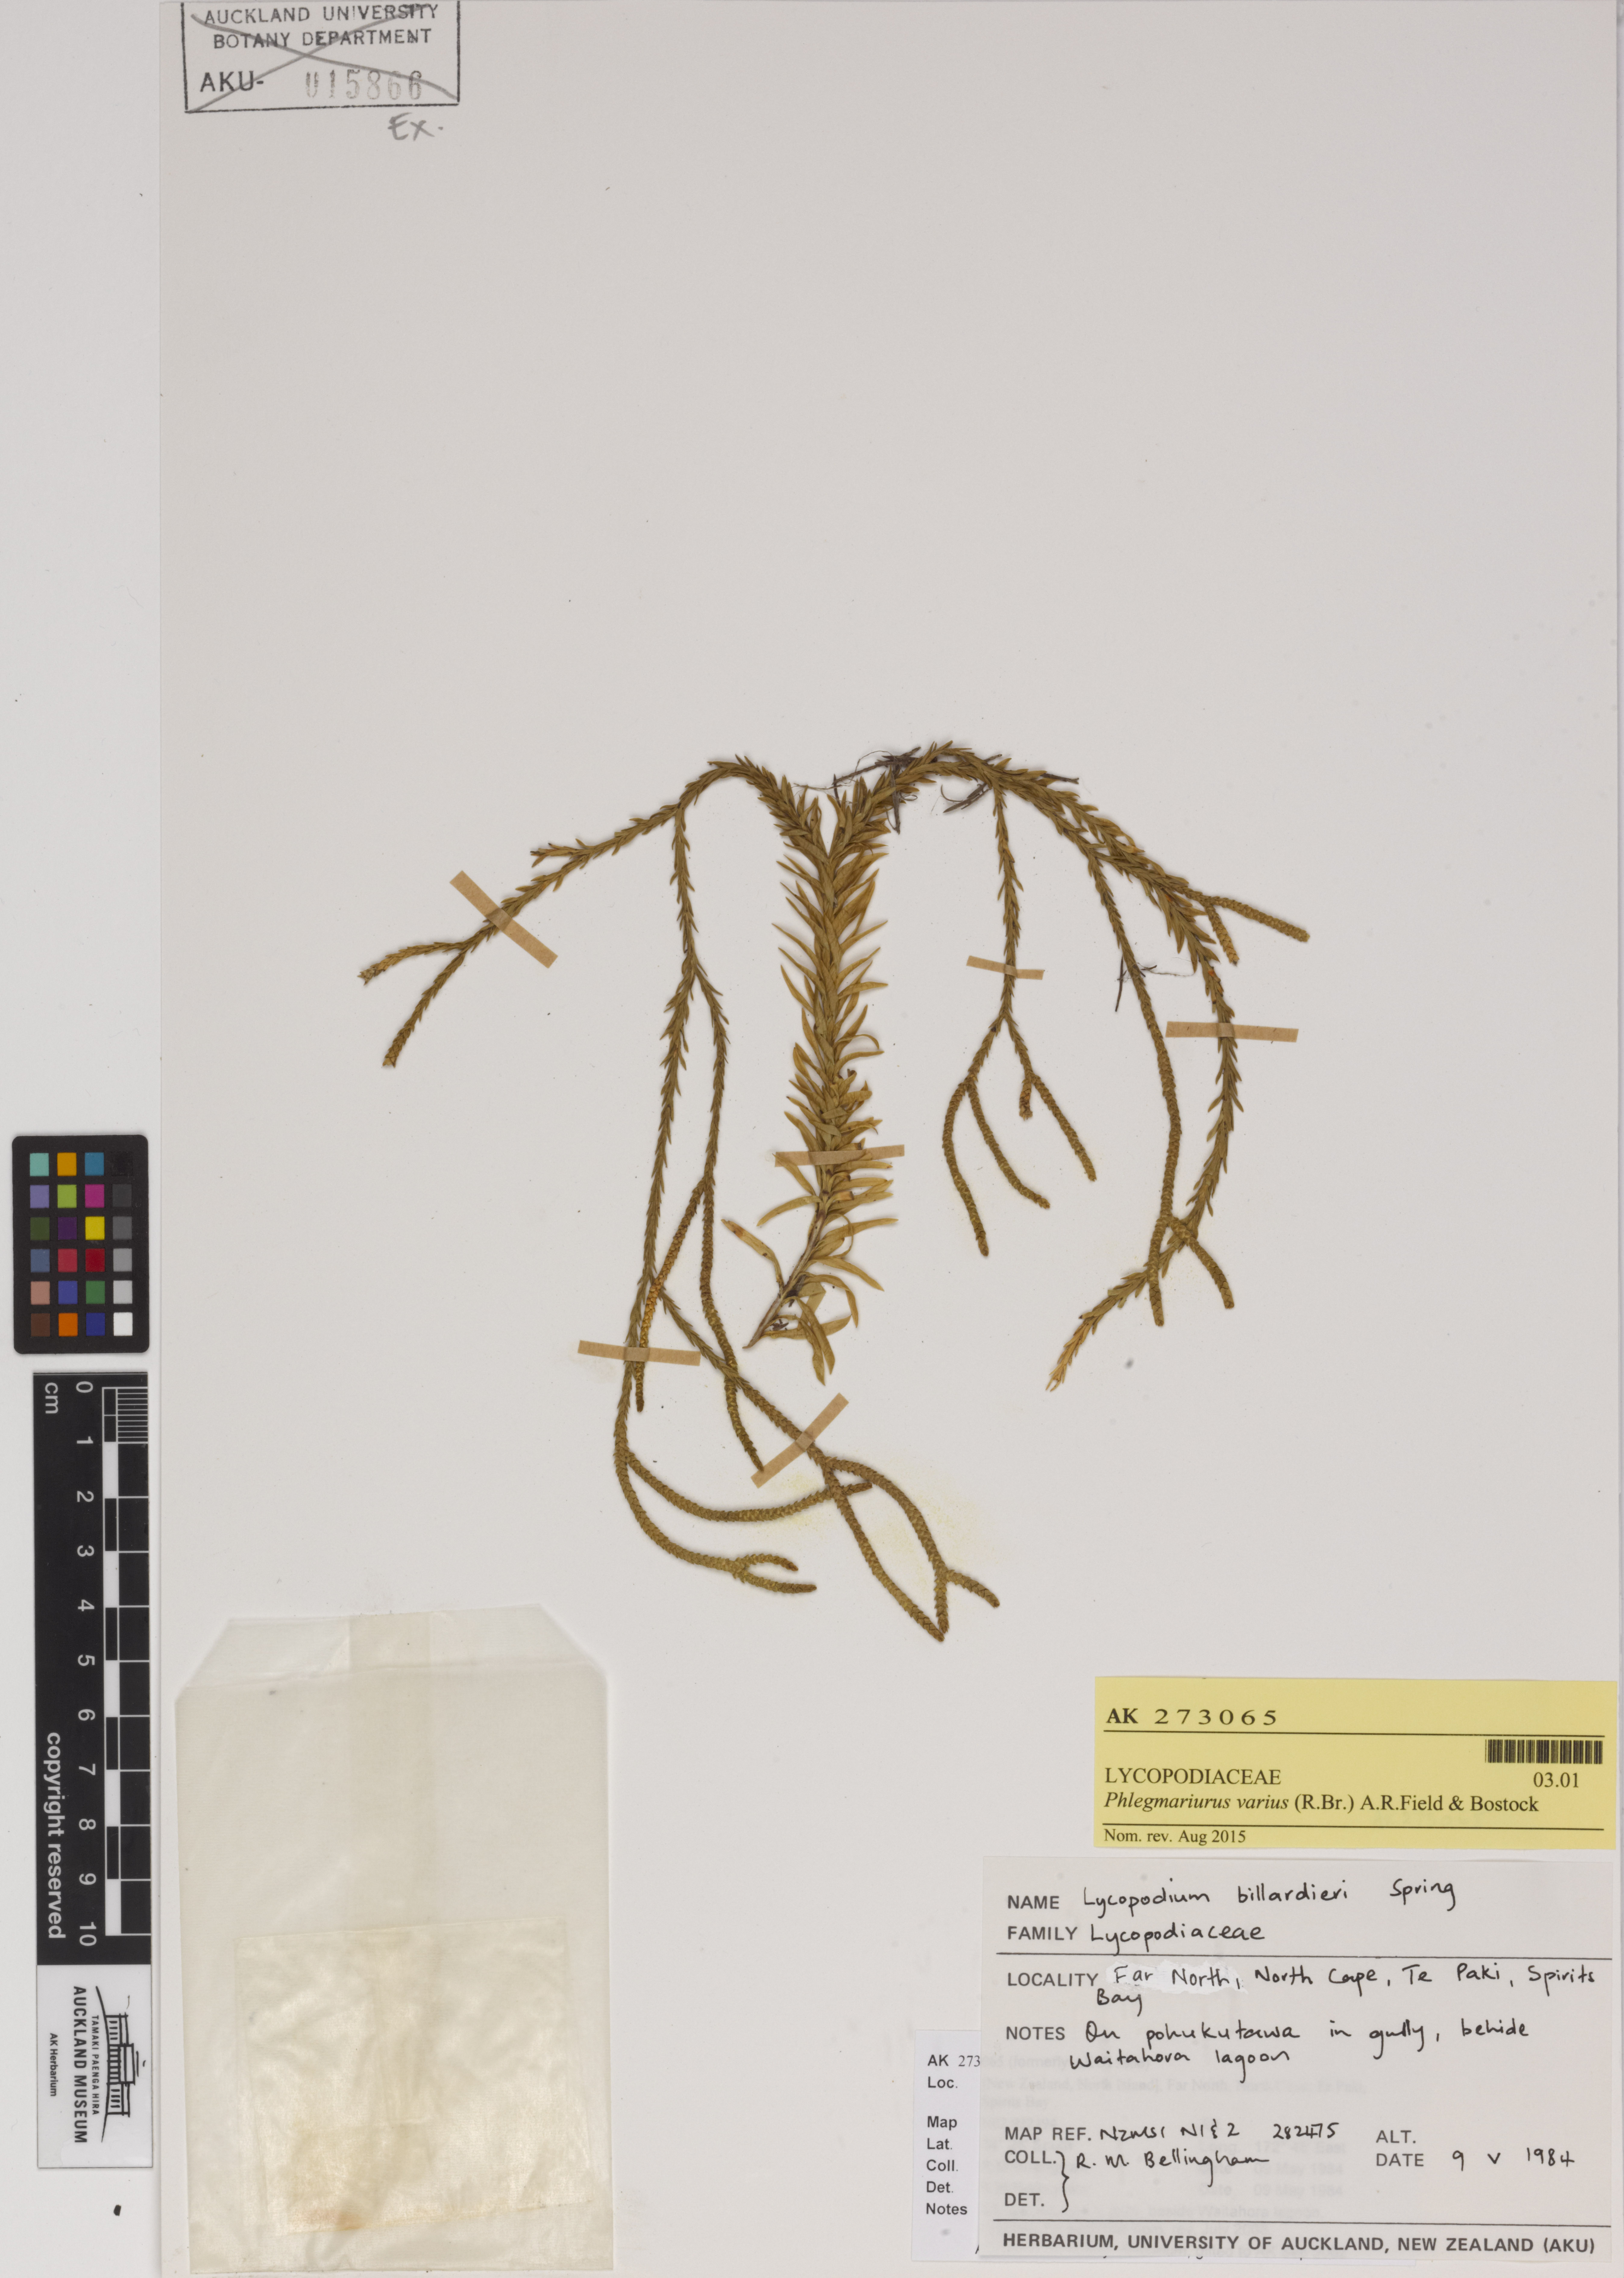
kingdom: Plantae
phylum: Tracheophyta
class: Lycopodiopsida
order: Lycopodiales
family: Lycopodiaceae
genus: Phlegmariurus
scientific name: Phlegmariurus billardierei
